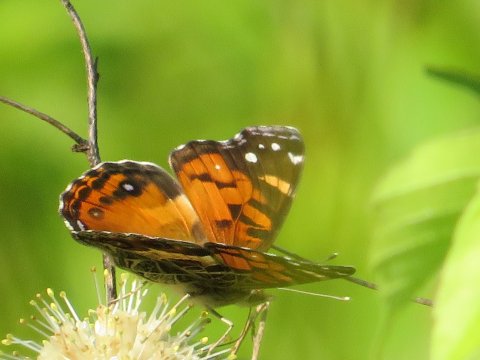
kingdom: Animalia
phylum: Arthropoda
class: Insecta
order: Lepidoptera
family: Nymphalidae
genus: Vanessa
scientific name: Vanessa virginiensis
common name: American Lady
